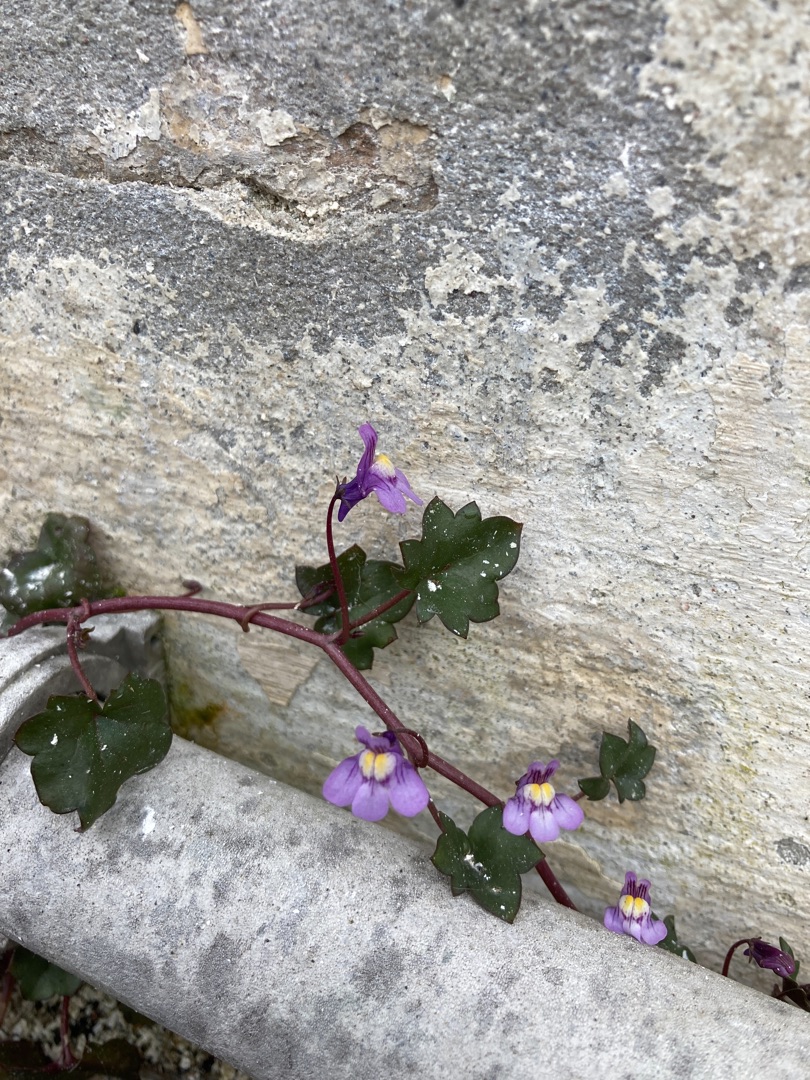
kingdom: Plantae
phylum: Tracheophyta
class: Magnoliopsida
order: Lamiales
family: Plantaginaceae
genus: Cymbalaria
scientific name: Cymbalaria muralis
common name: Vedbend-torskemund
